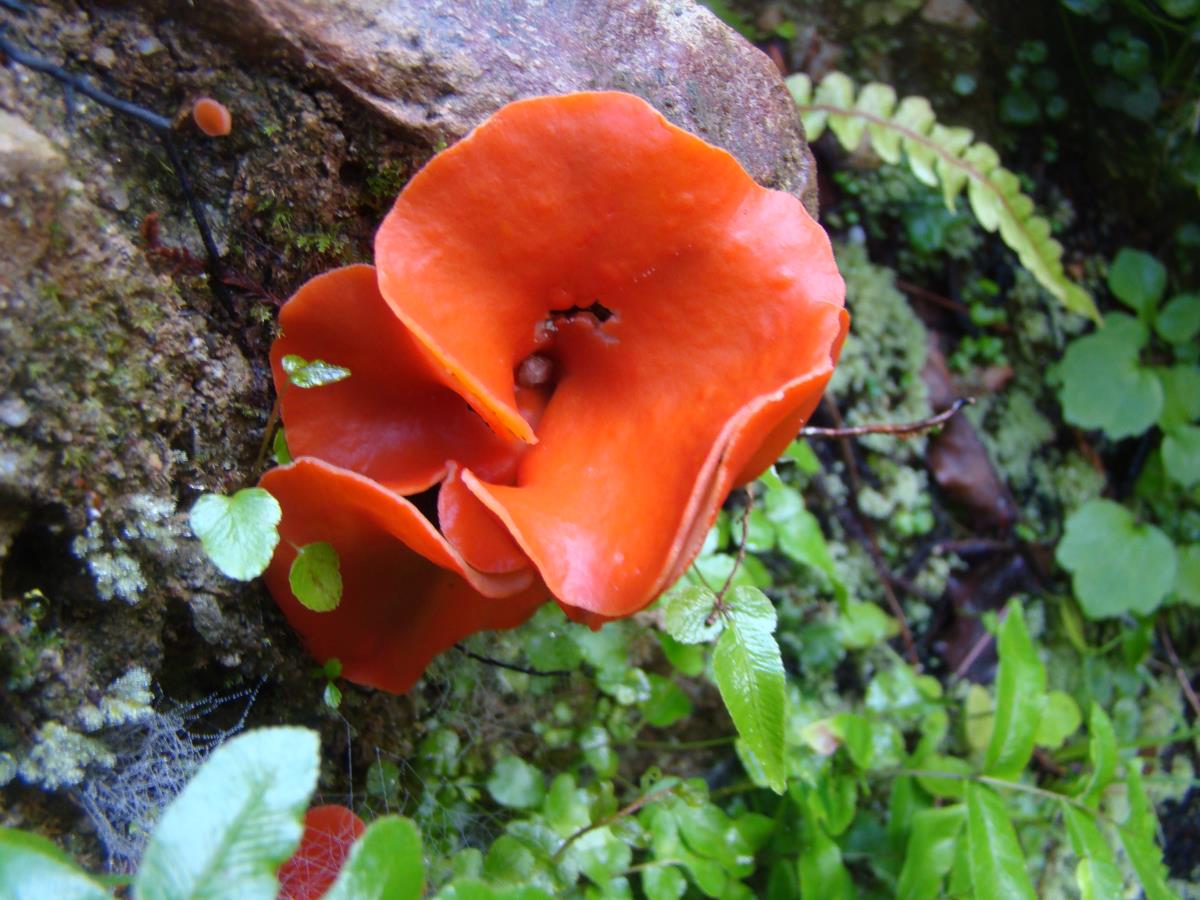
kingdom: Fungi
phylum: Ascomycota
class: Pezizomycetes
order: Pezizales
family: Pyronemataceae
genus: Aleuria
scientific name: Aleuria aurantia
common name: Orange peel fungus
